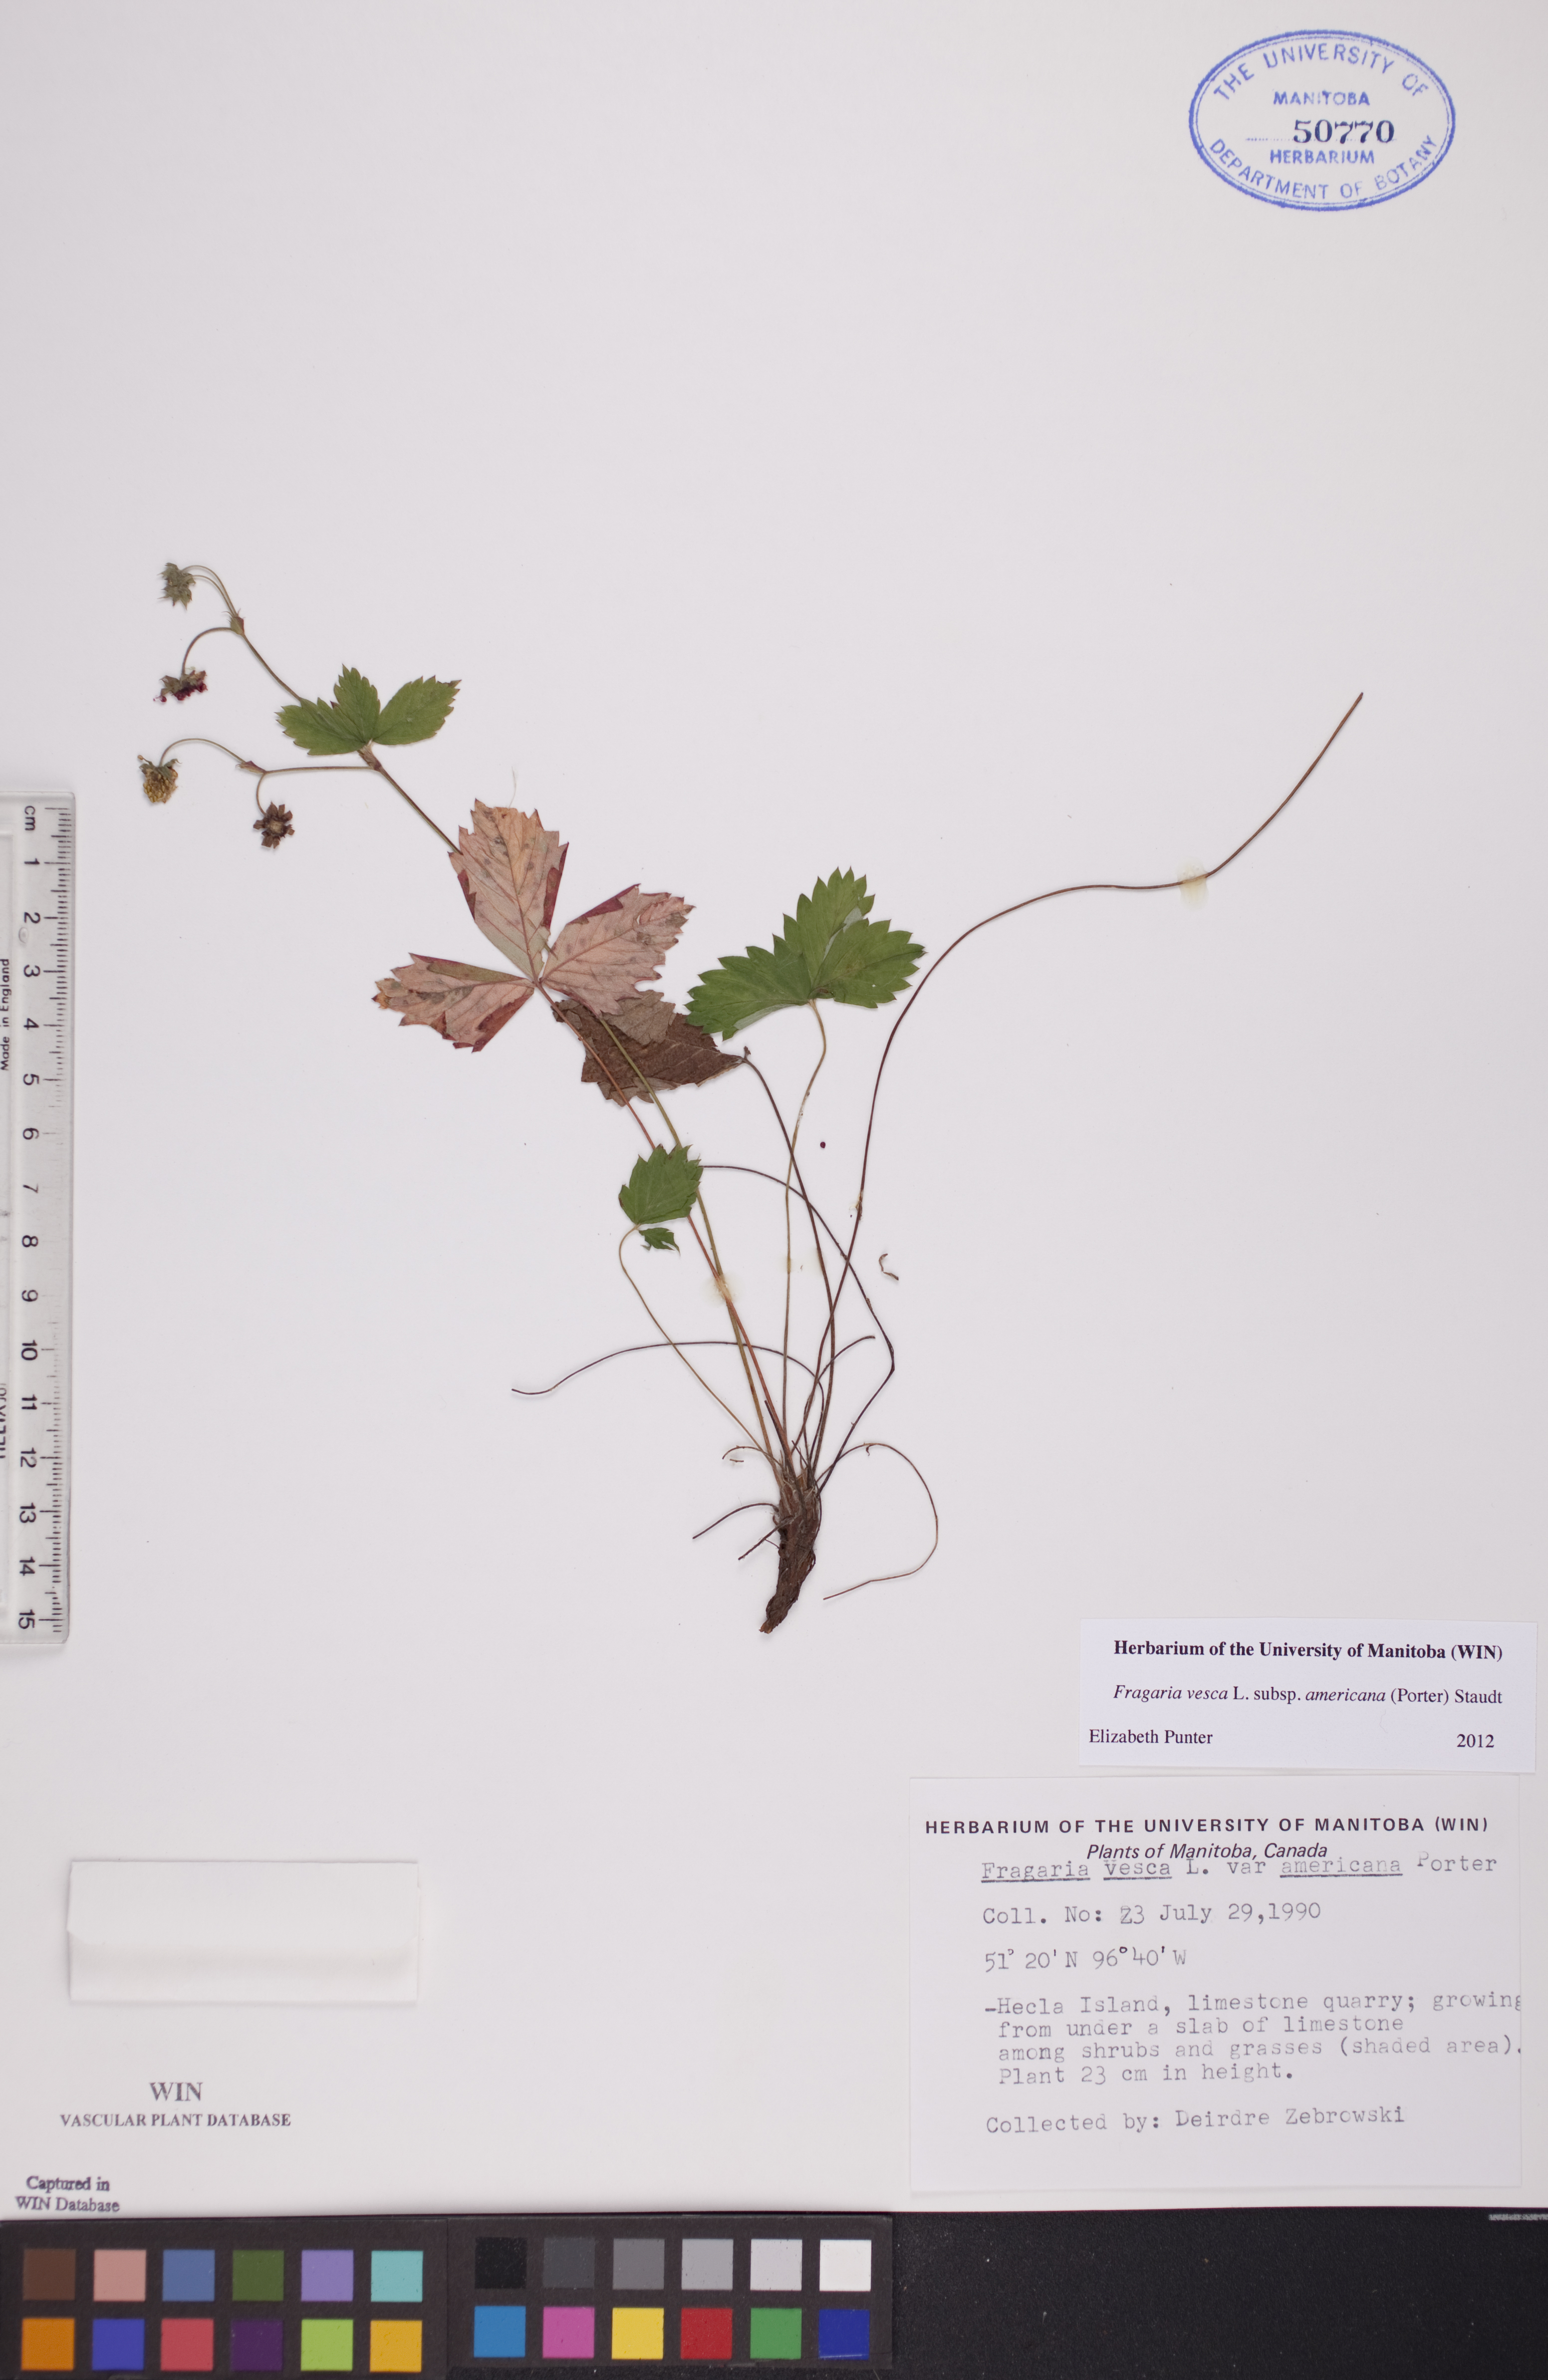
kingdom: Plantae
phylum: Tracheophyta
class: Magnoliopsida
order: Rosales
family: Rosaceae
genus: Fragaria
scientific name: Fragaria vesca
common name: Wild strawberry
